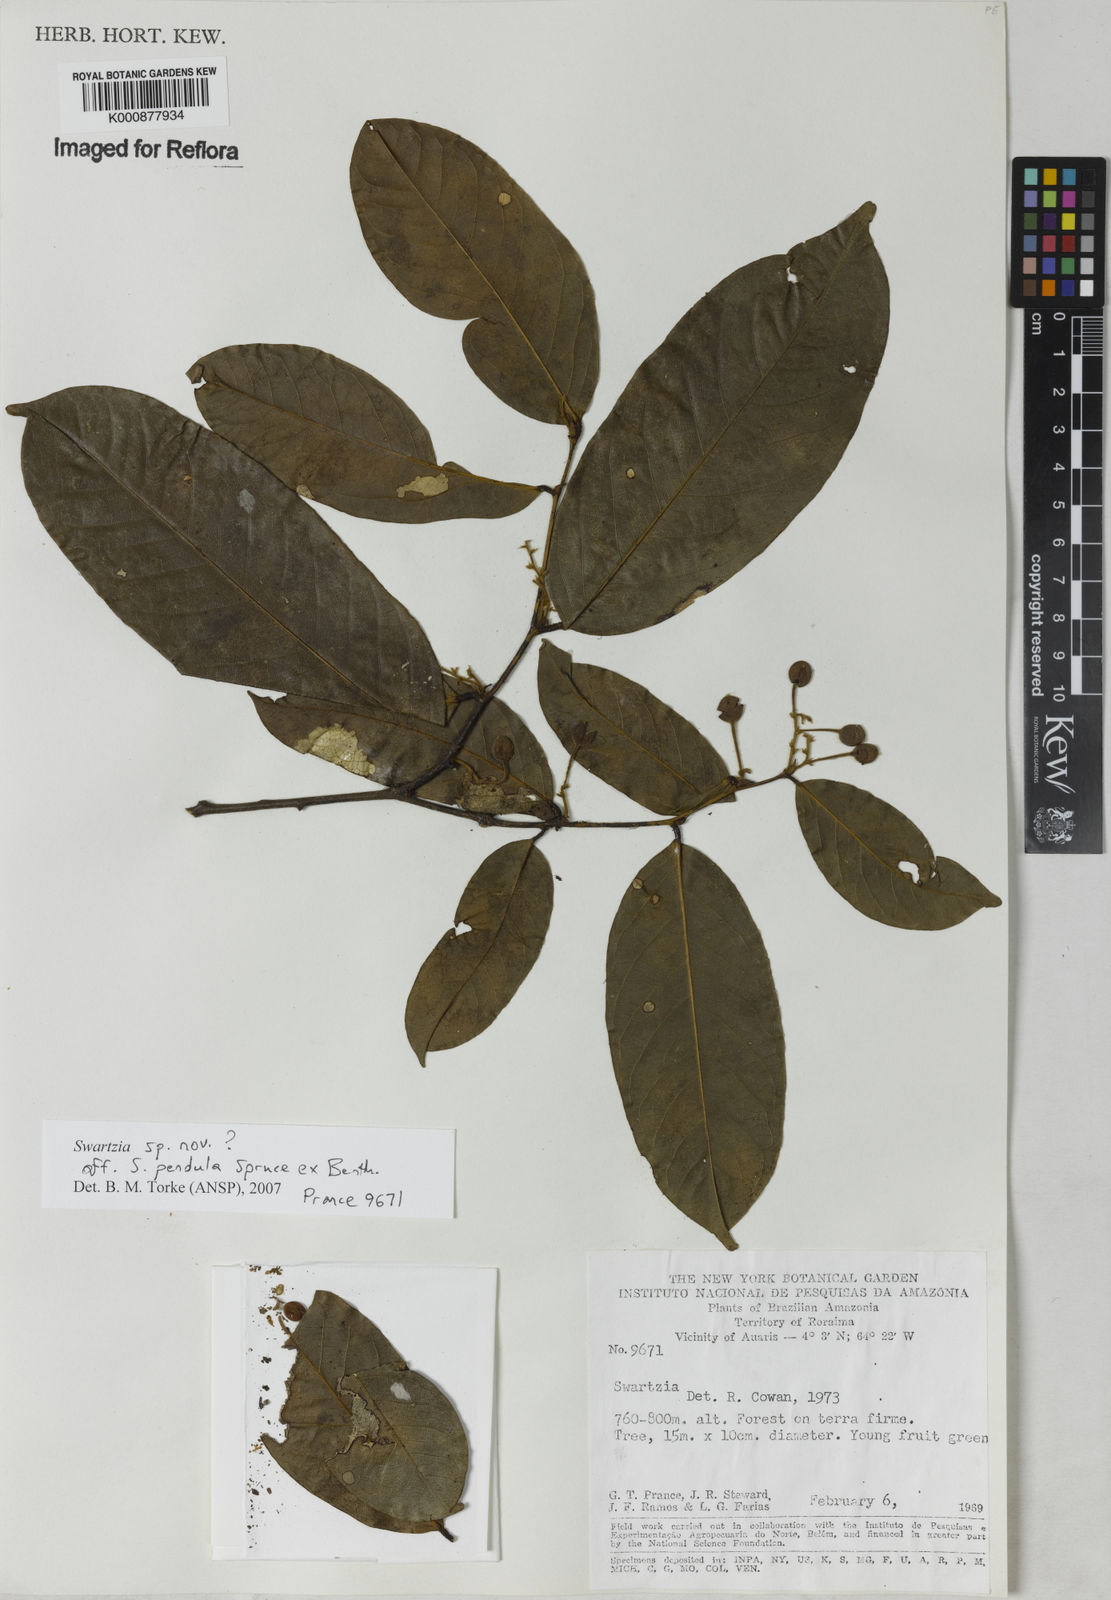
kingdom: Plantae
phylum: Tracheophyta
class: Magnoliopsida
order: Fabales
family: Fabaceae
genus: Swartzia
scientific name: Swartzia pendula
